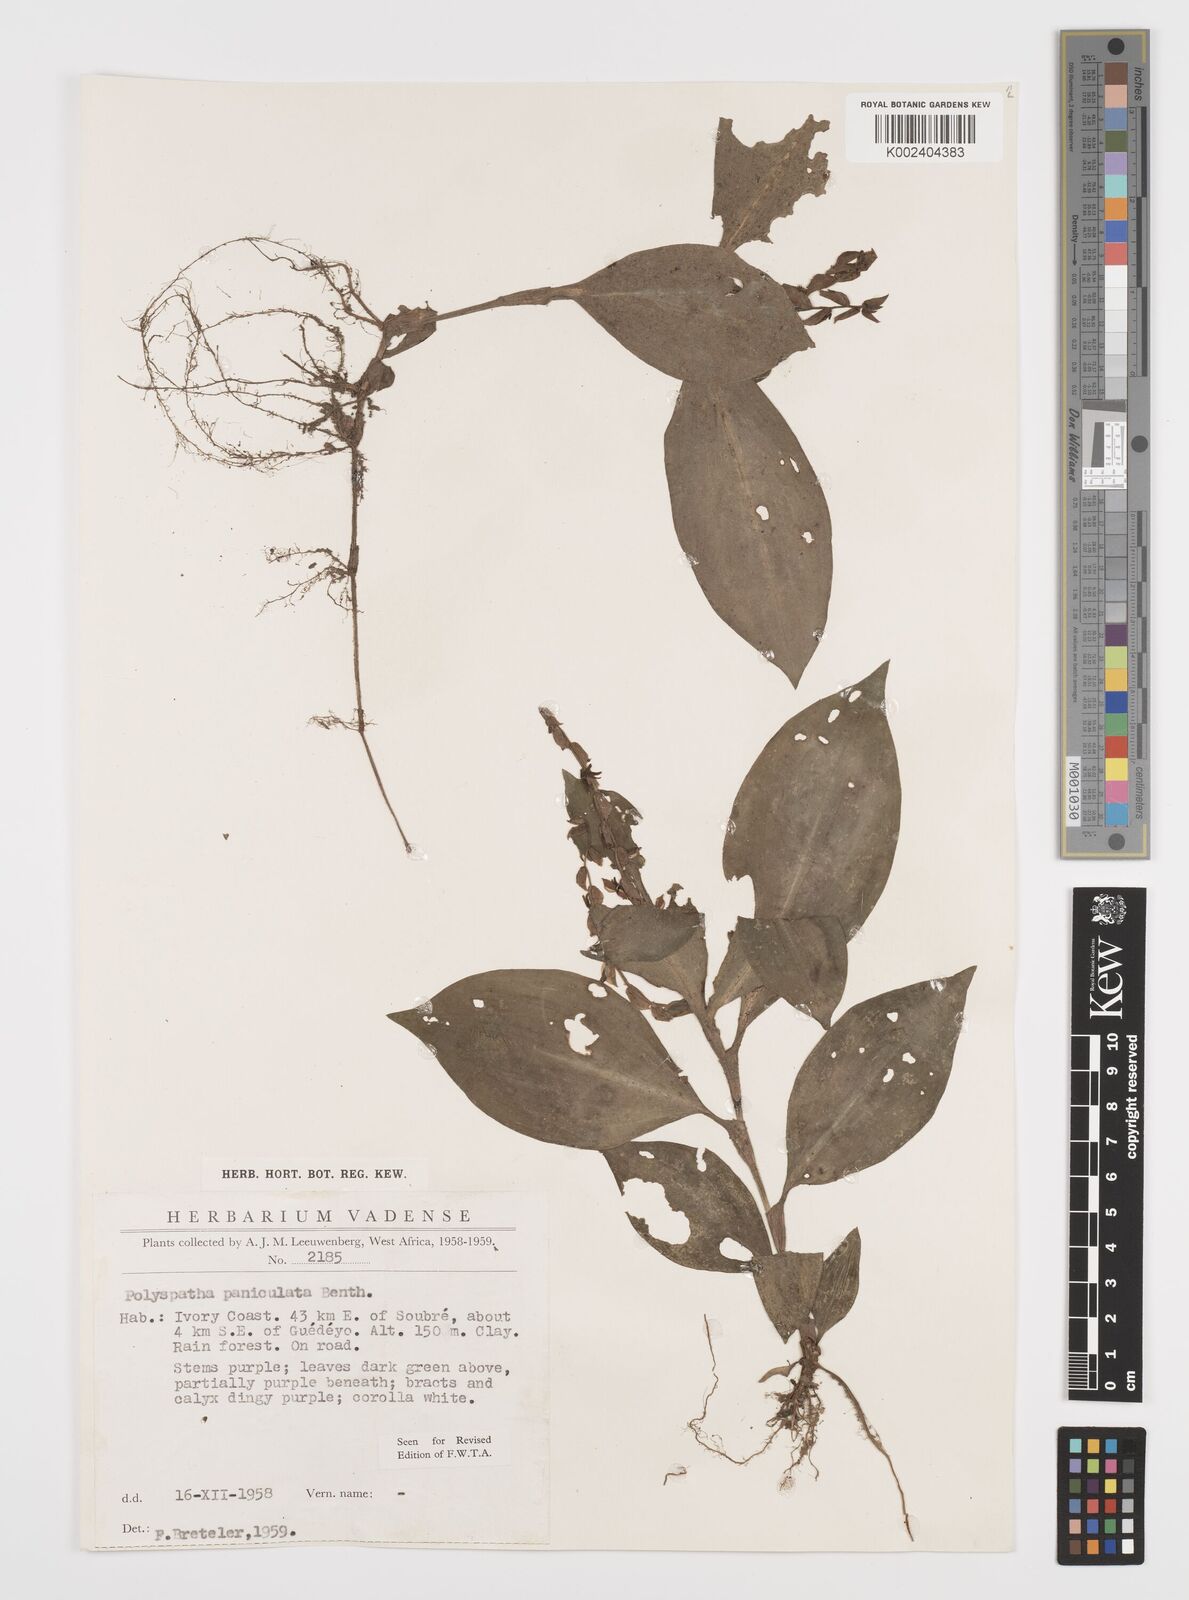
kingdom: Plantae
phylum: Tracheophyta
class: Liliopsida
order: Commelinales
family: Commelinaceae
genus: Polyspatha
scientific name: Polyspatha paniculata
